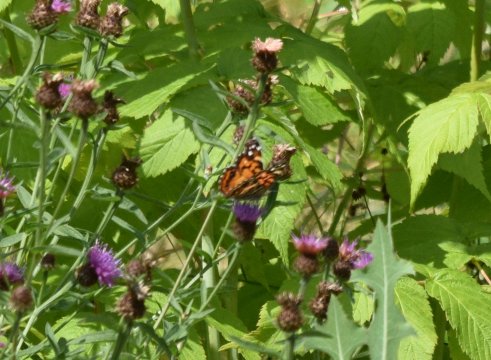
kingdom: Animalia
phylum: Arthropoda
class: Insecta
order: Lepidoptera
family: Nymphalidae
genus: Vanessa
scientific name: Vanessa virginiensis
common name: American Lady
